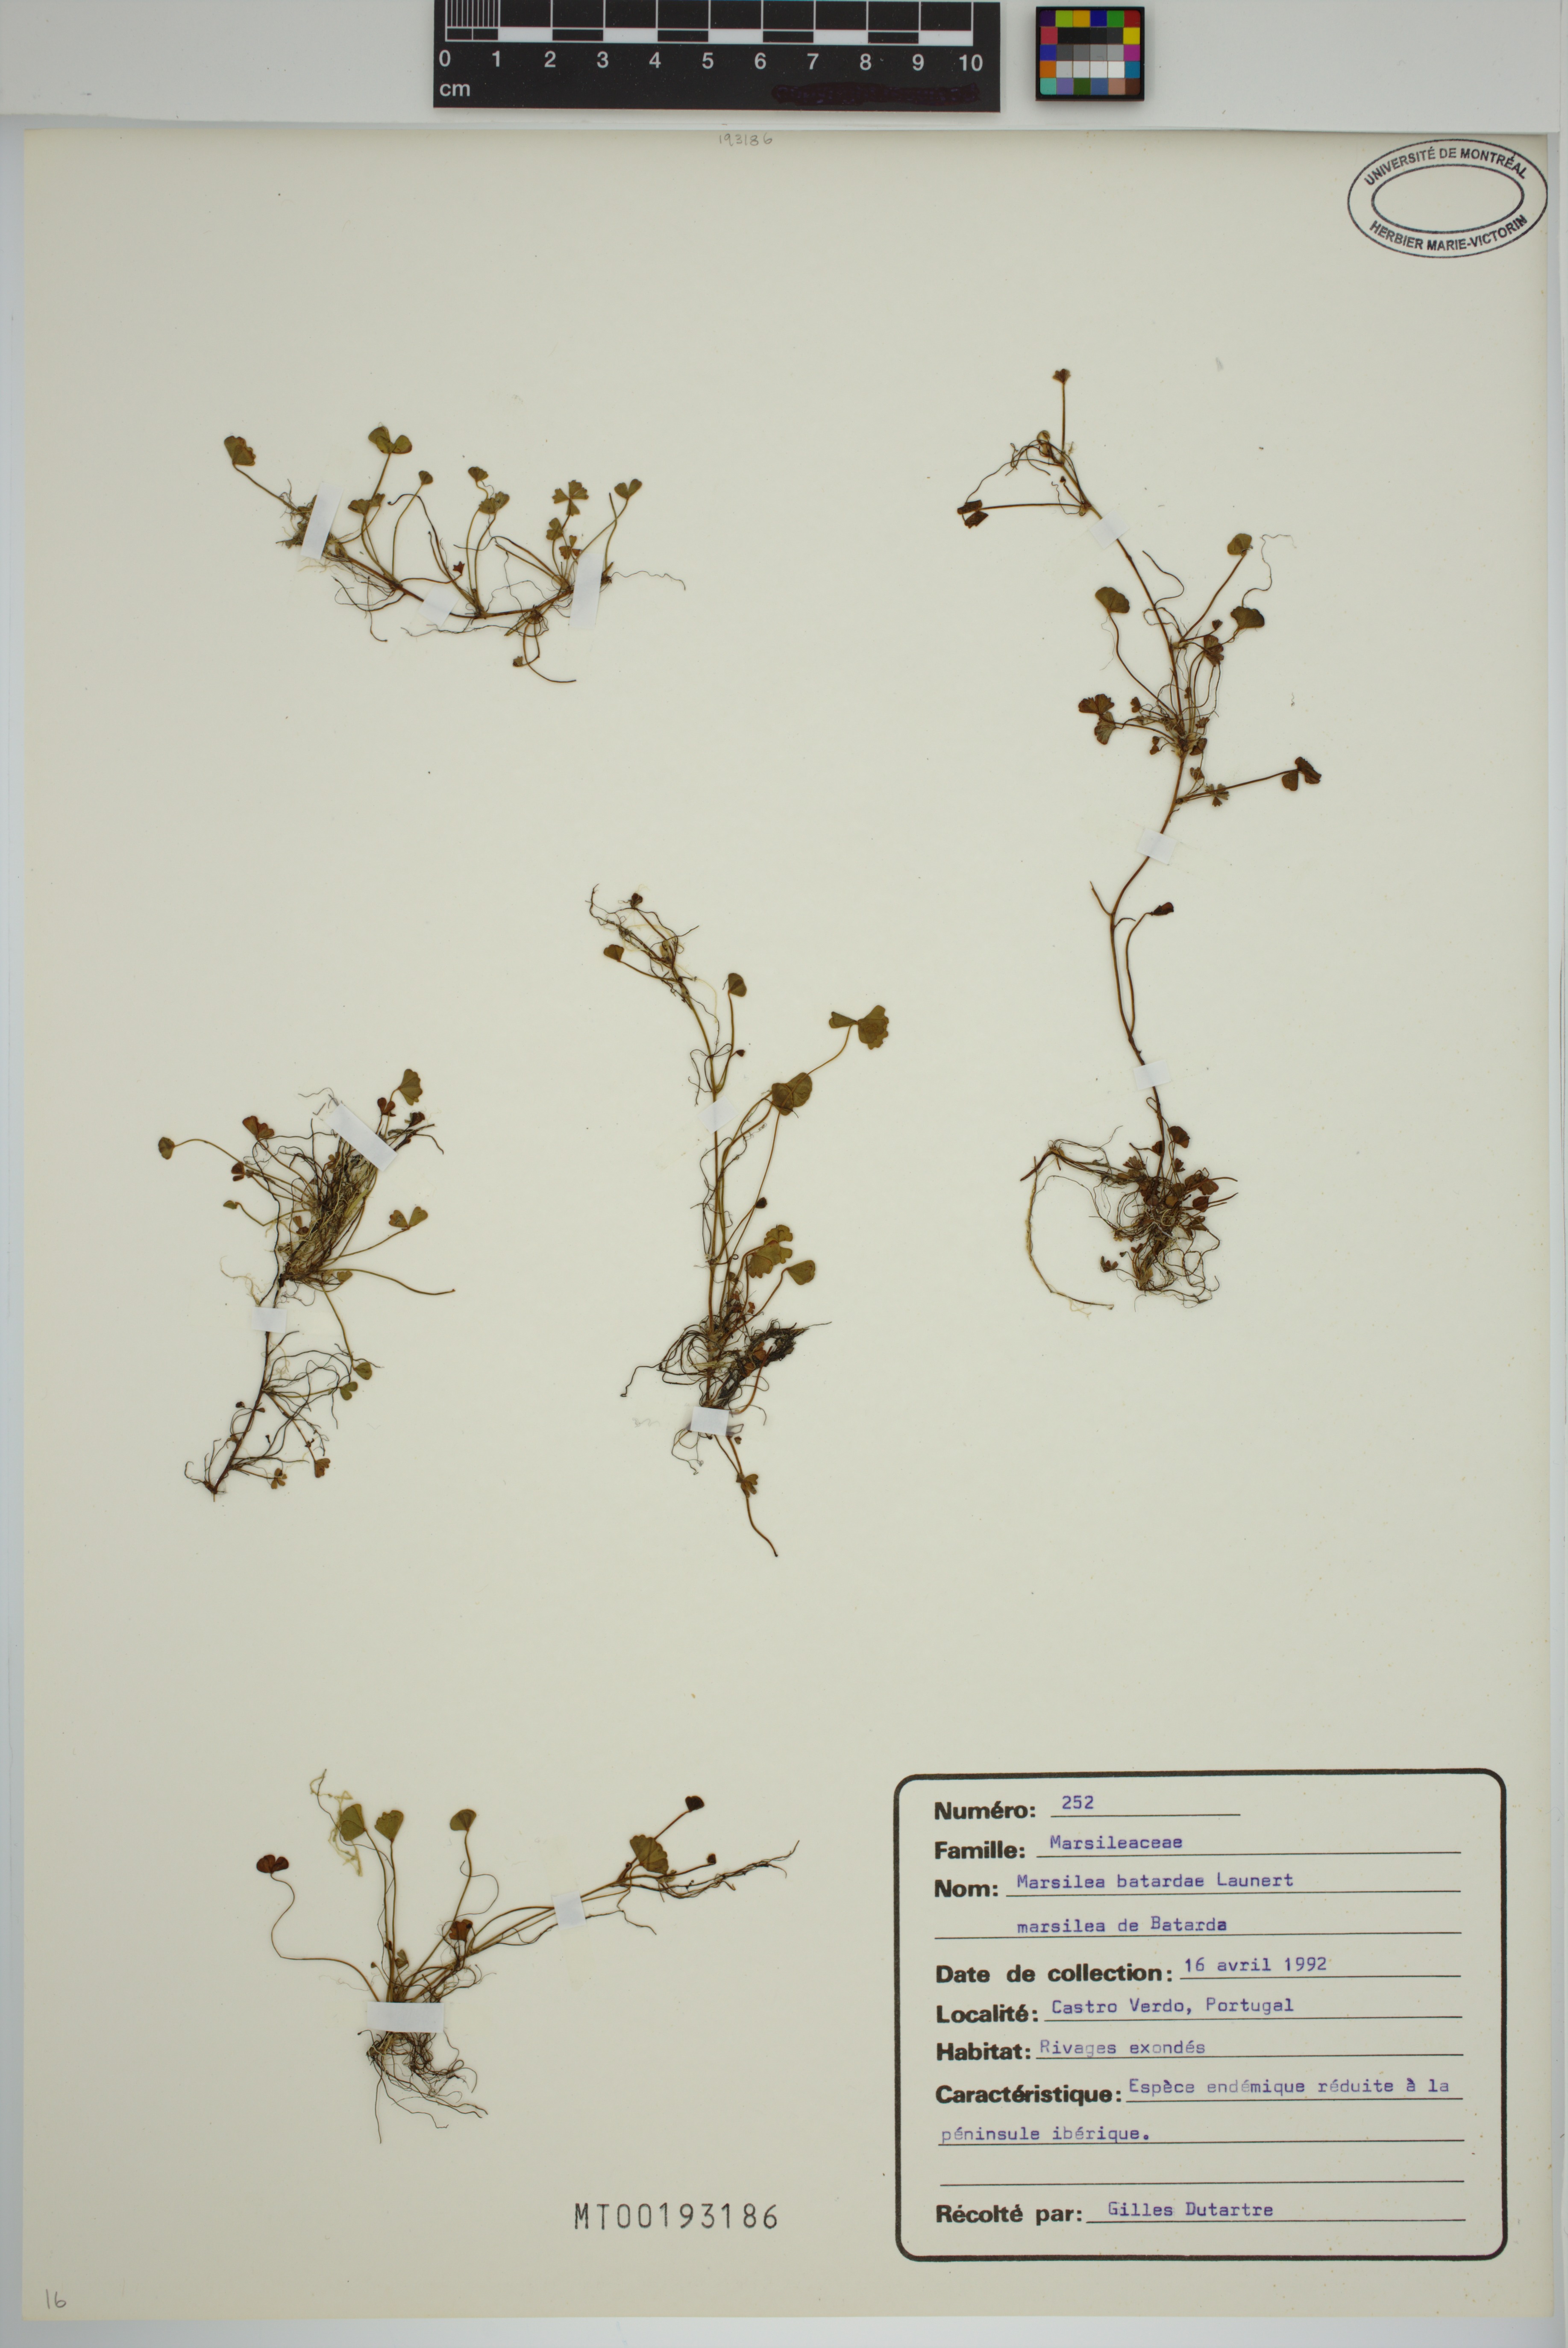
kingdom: Plantae
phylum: Tracheophyta
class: Polypodiopsida
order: Salviniales
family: Marsileaceae
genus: Marsilea
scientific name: Marsilea batardae
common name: Lusitanian water clover
